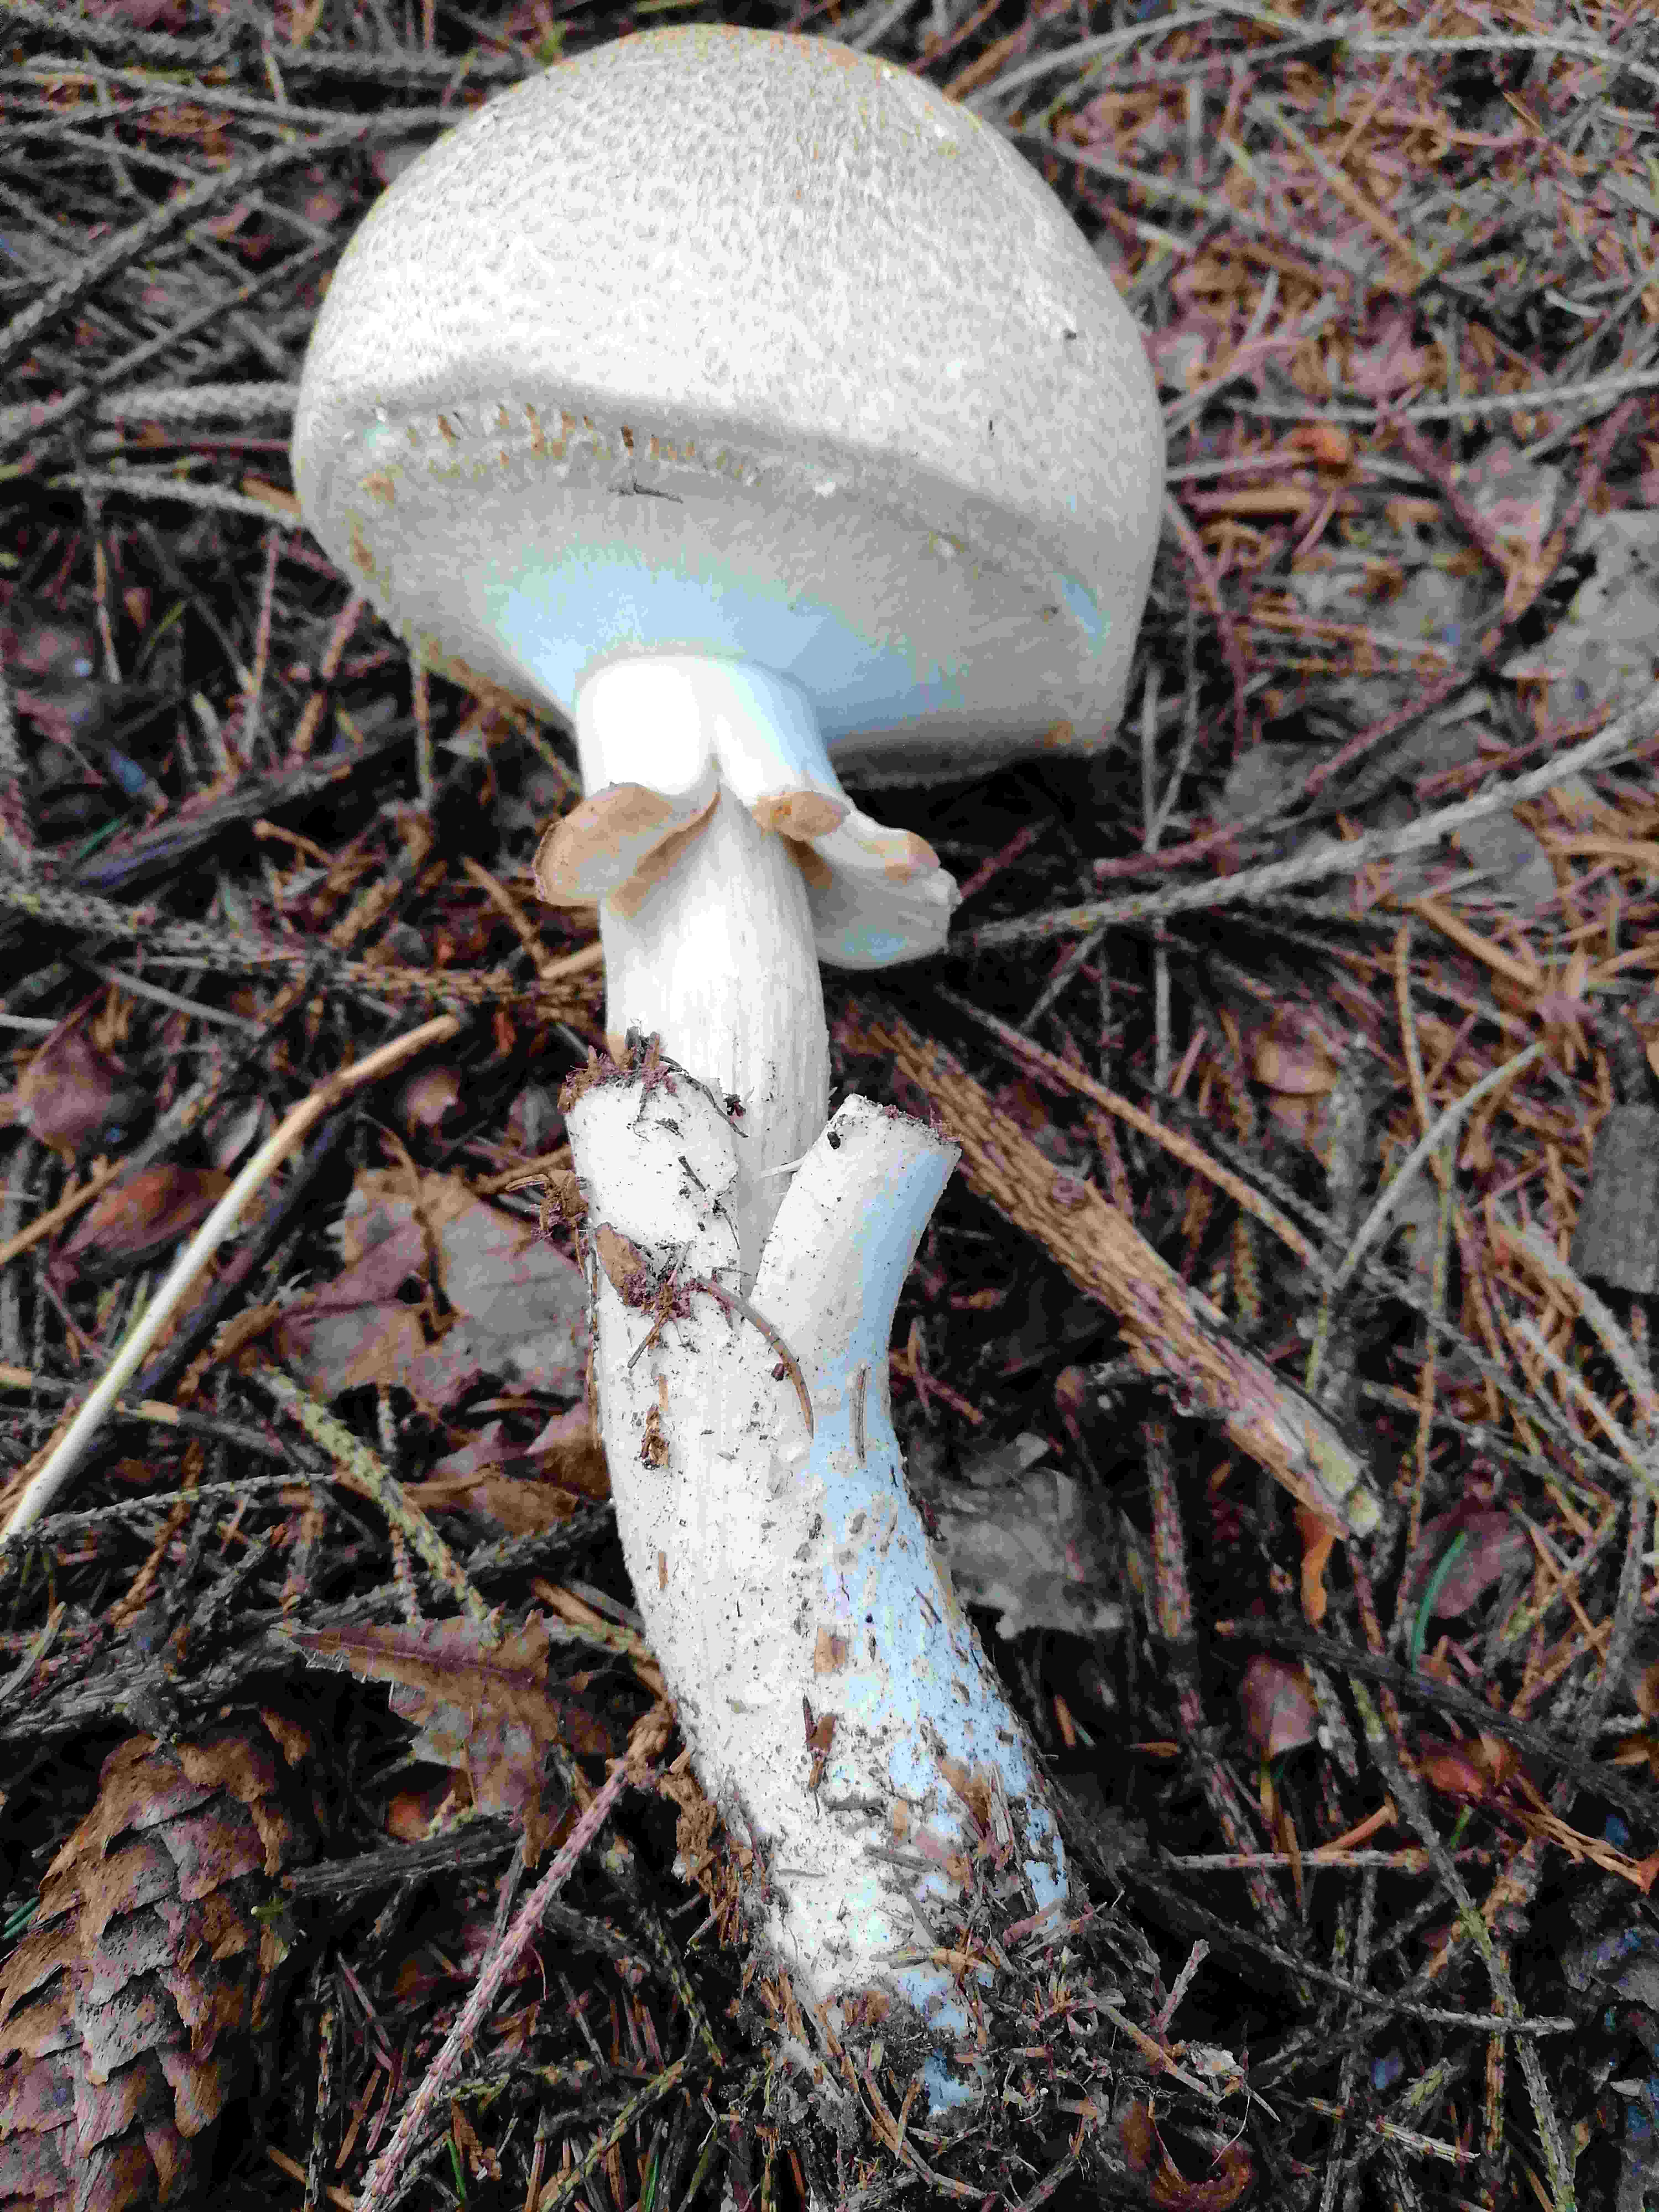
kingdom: Fungi
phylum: Basidiomycota
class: Agaricomycetes
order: Agaricales
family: Agaricaceae
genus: Agaricus
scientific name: Agaricus augustus
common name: prægtig champignon
